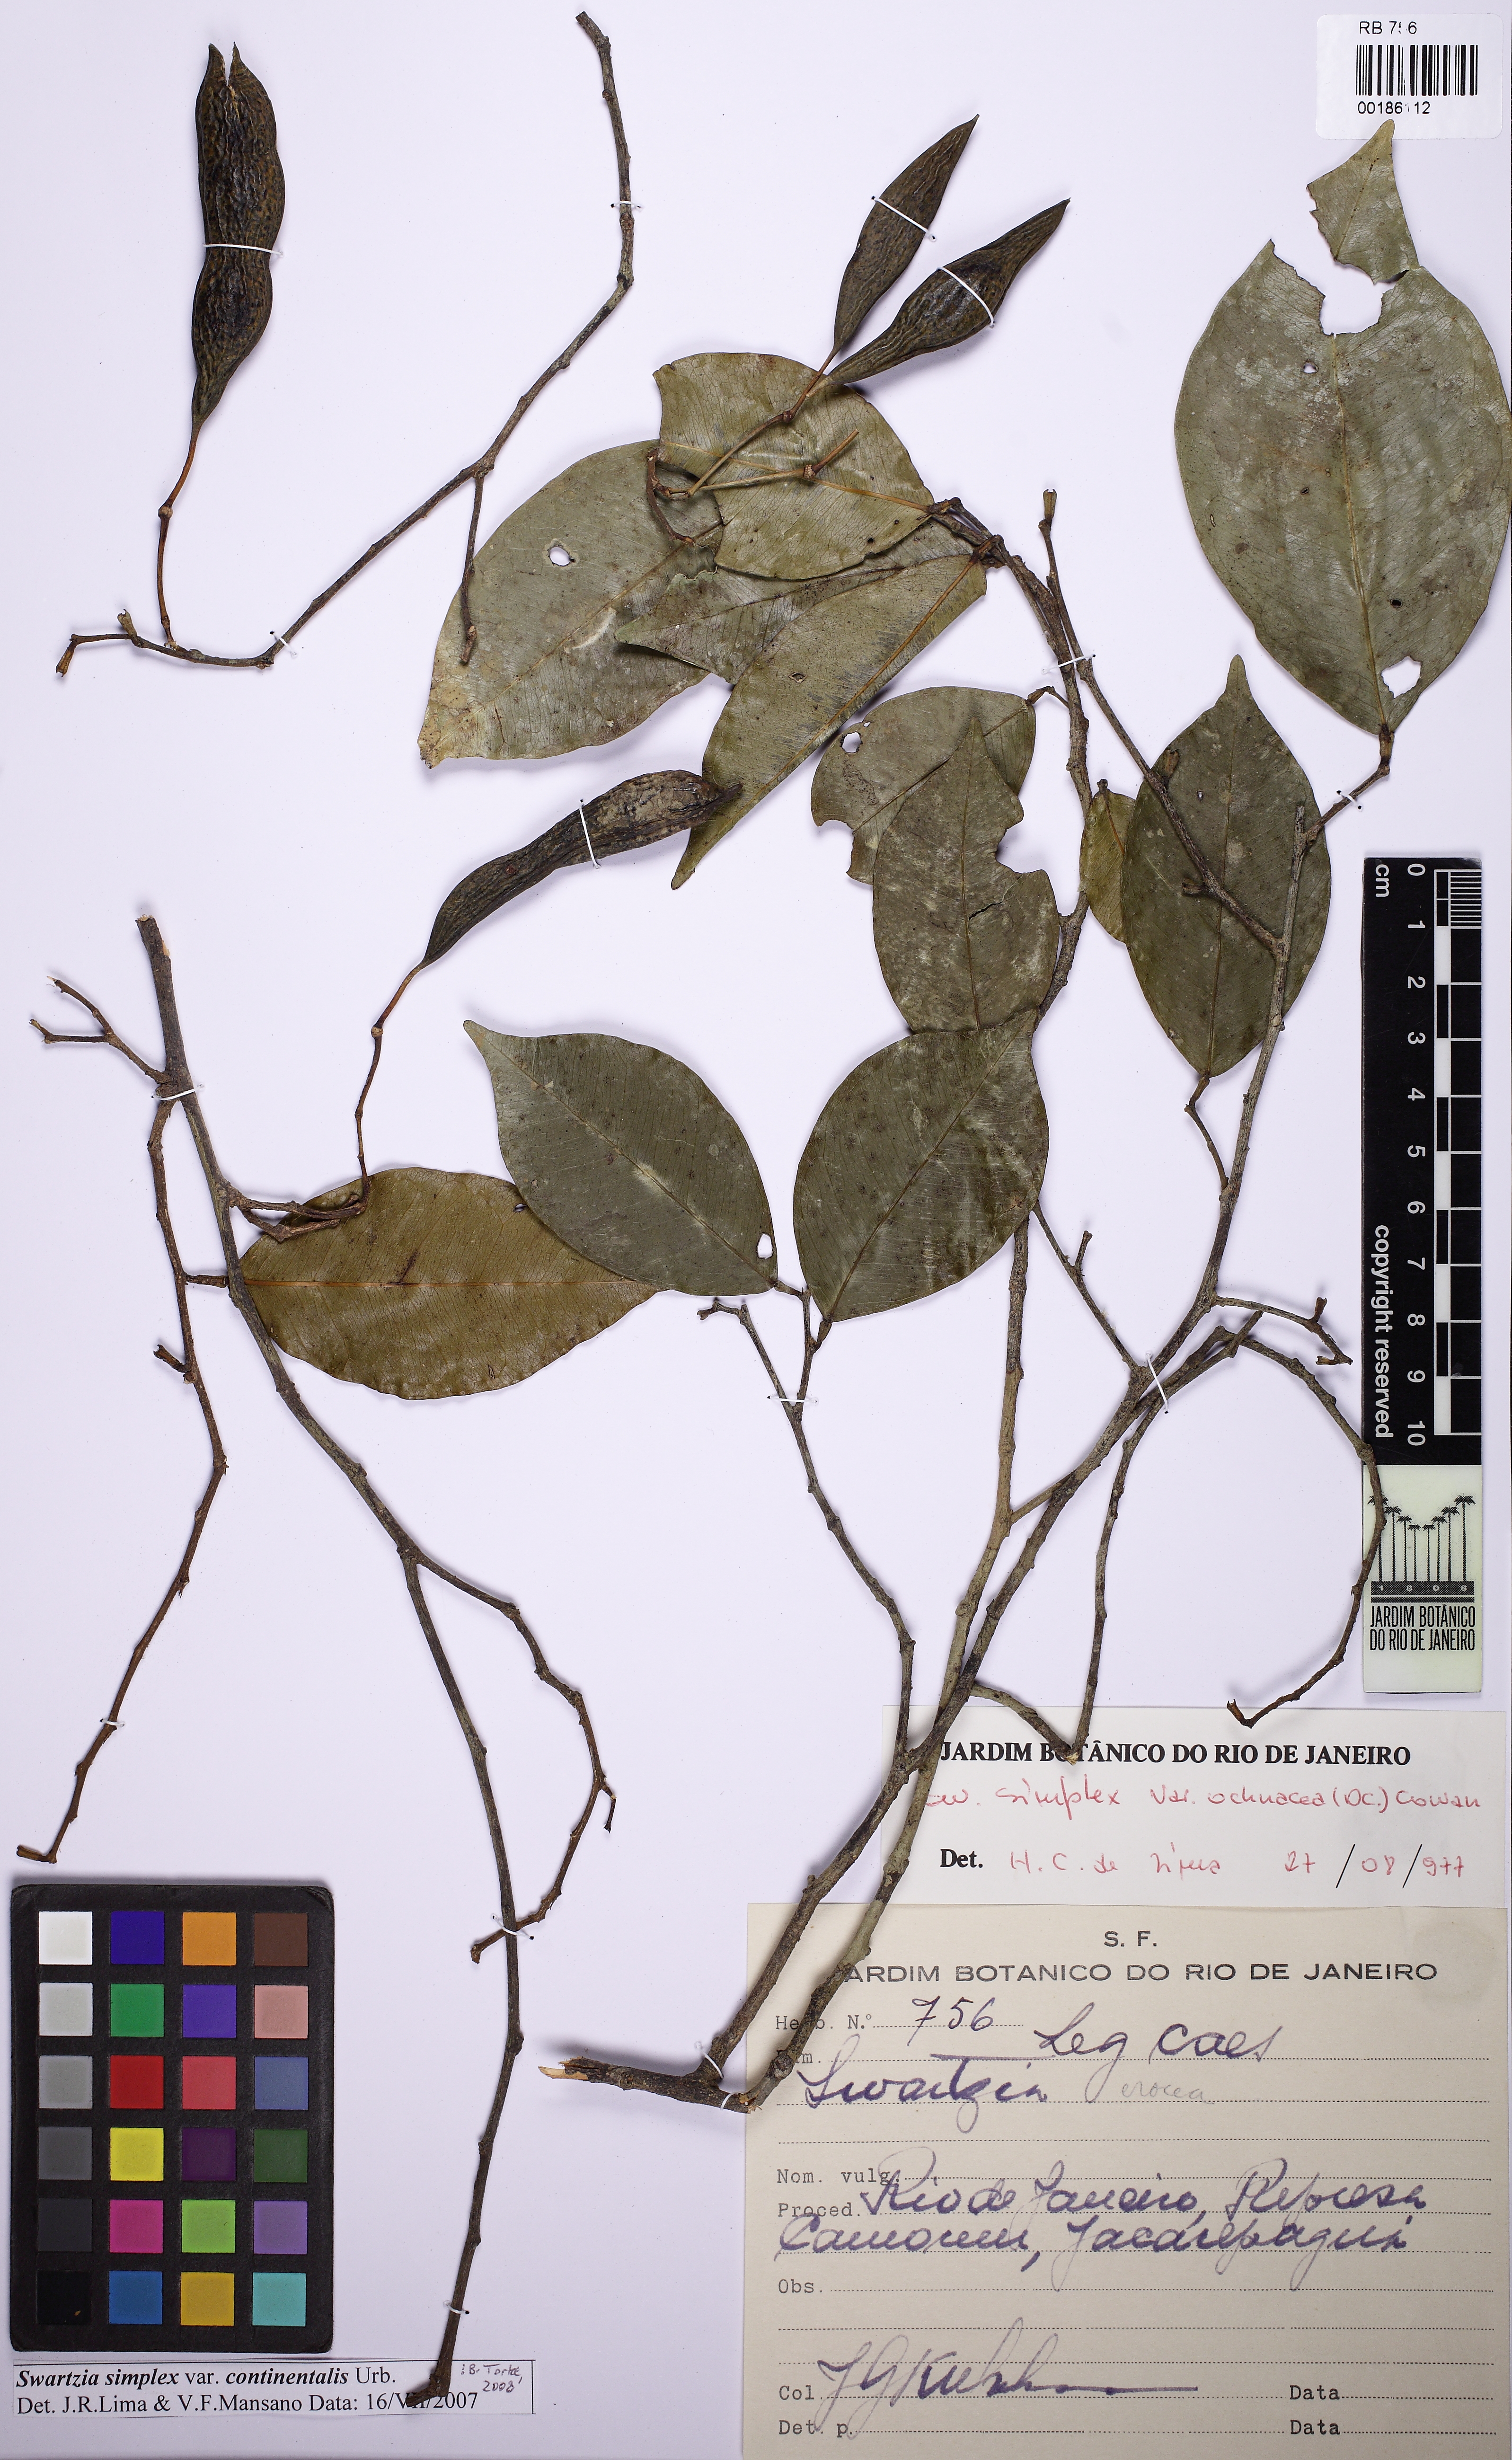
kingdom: Plantae
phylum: Tracheophyta
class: Magnoliopsida
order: Fabales
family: Fabaceae
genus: Swartzia
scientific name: Swartzia simplex
